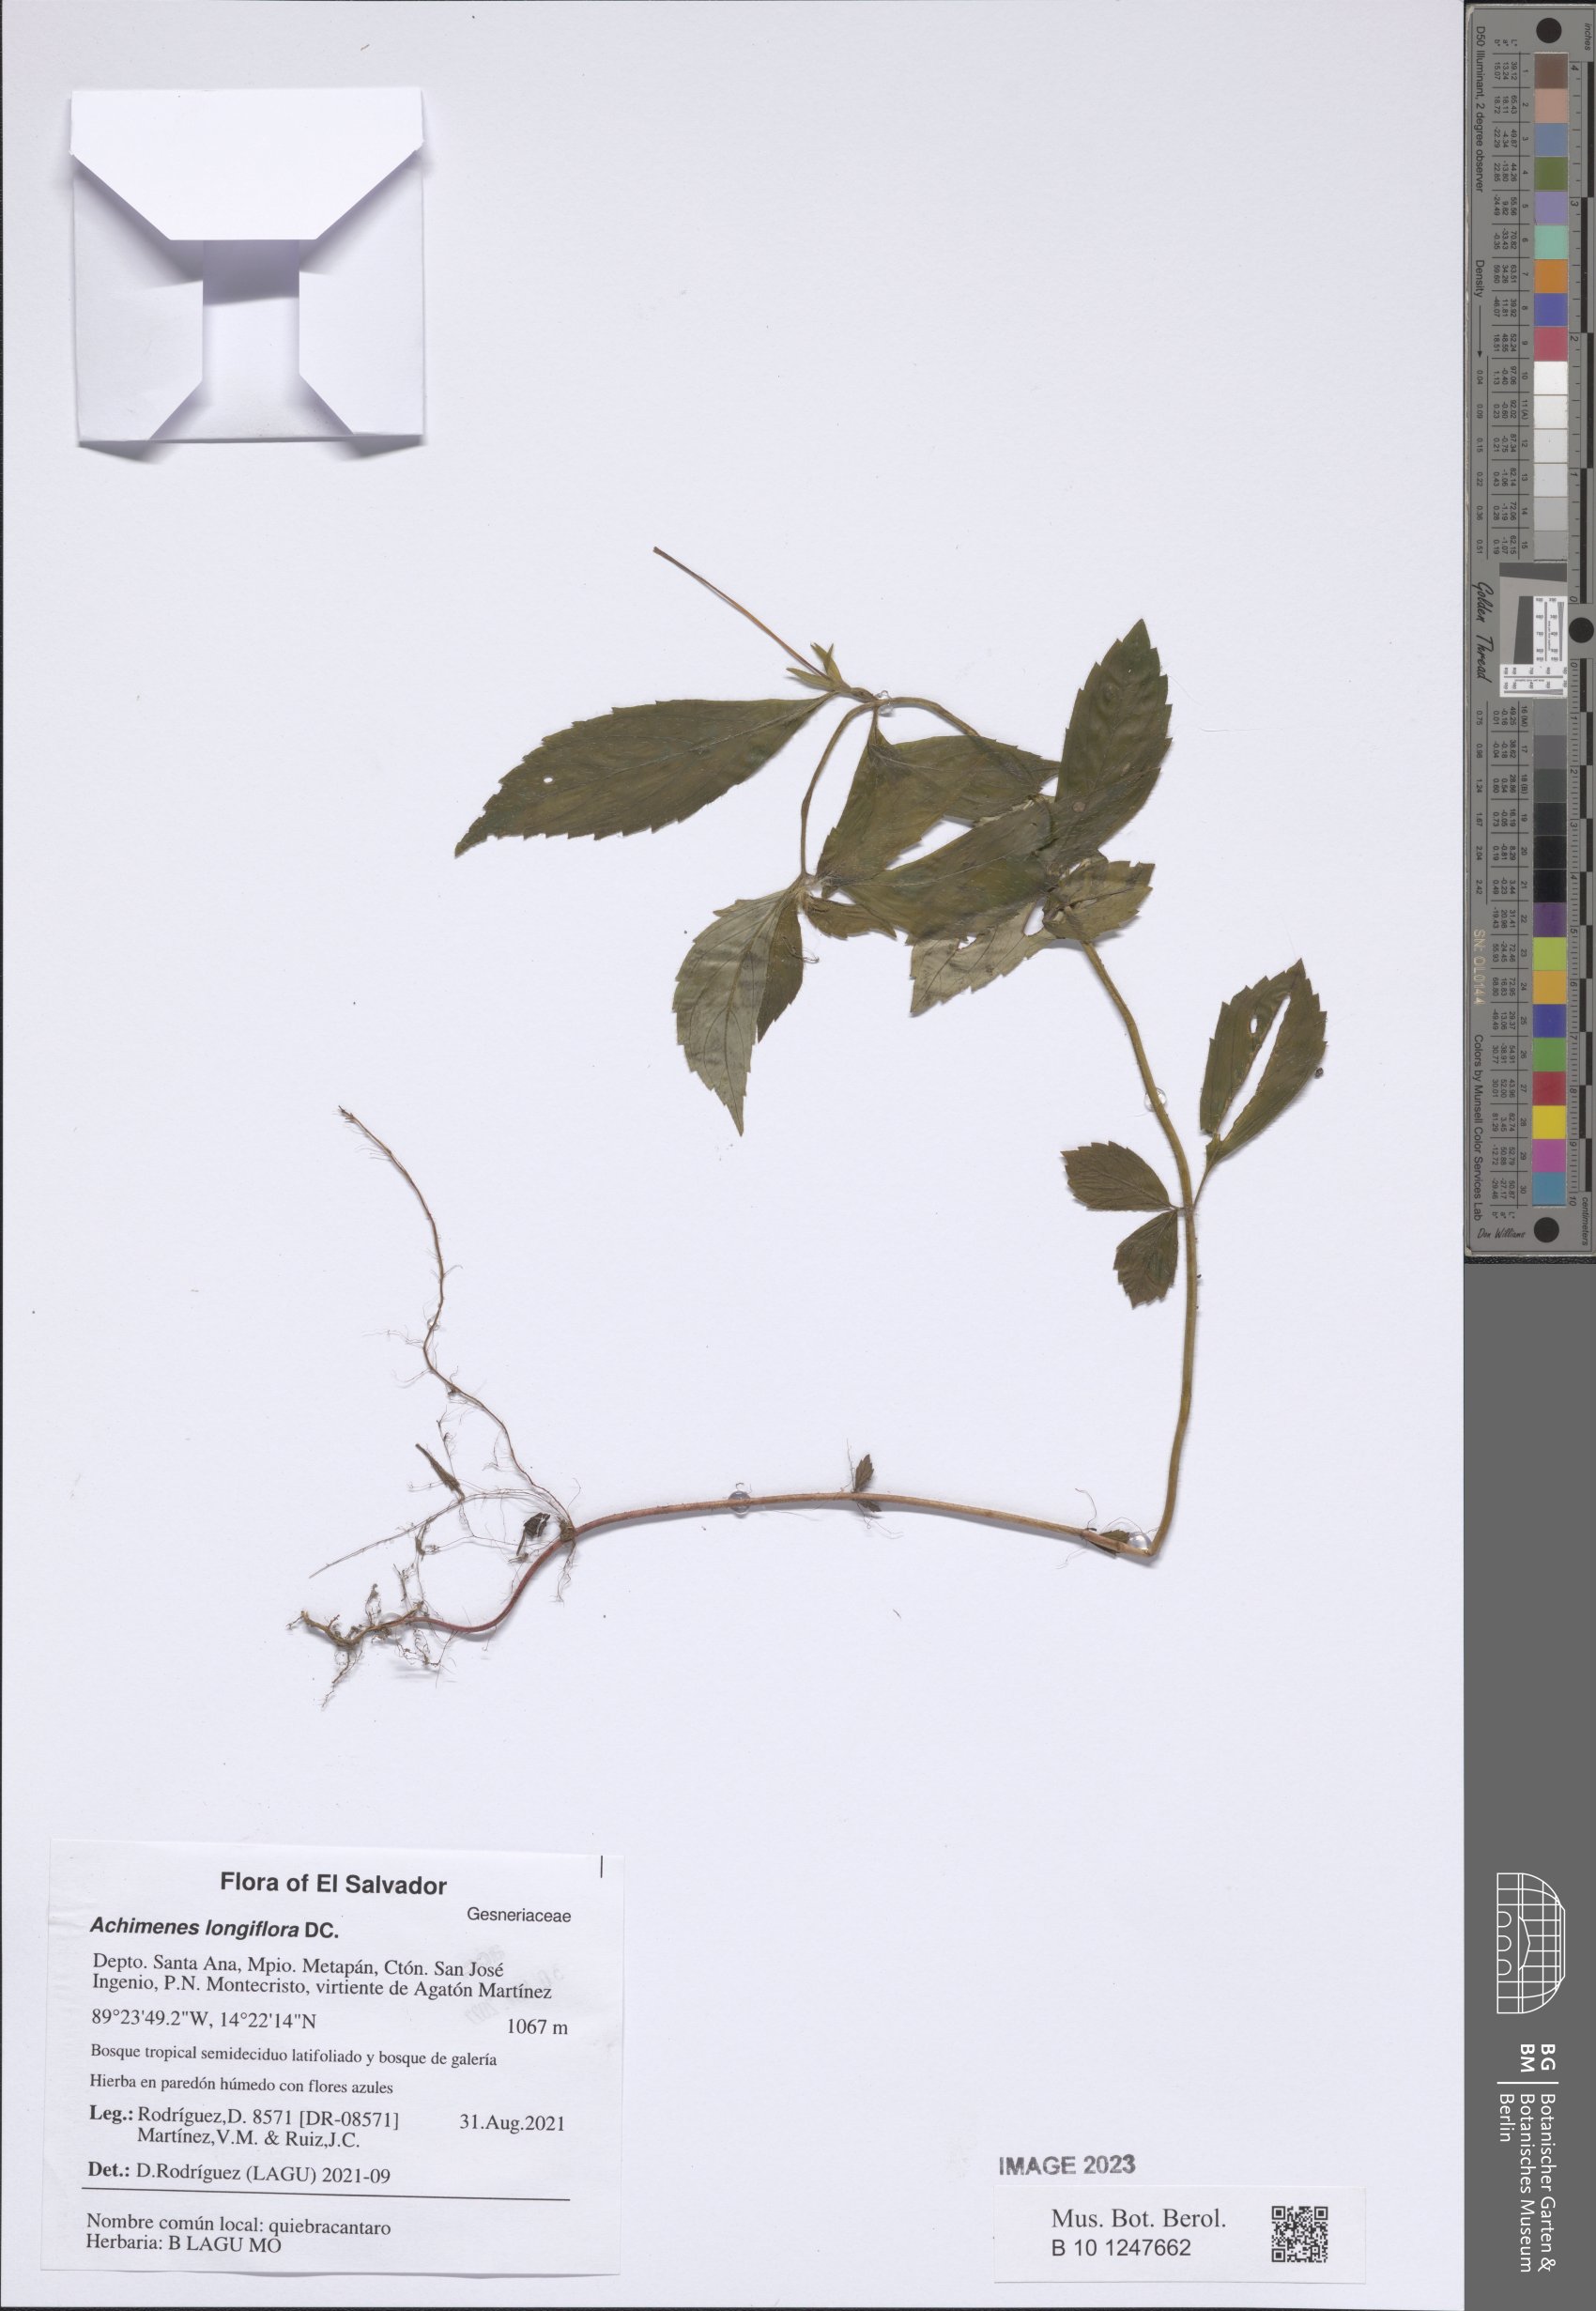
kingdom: Plantae
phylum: Tracheophyta
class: Magnoliopsida
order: Lamiales
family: Gesneriaceae
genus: Achimenes
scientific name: Achimenes longiflora
